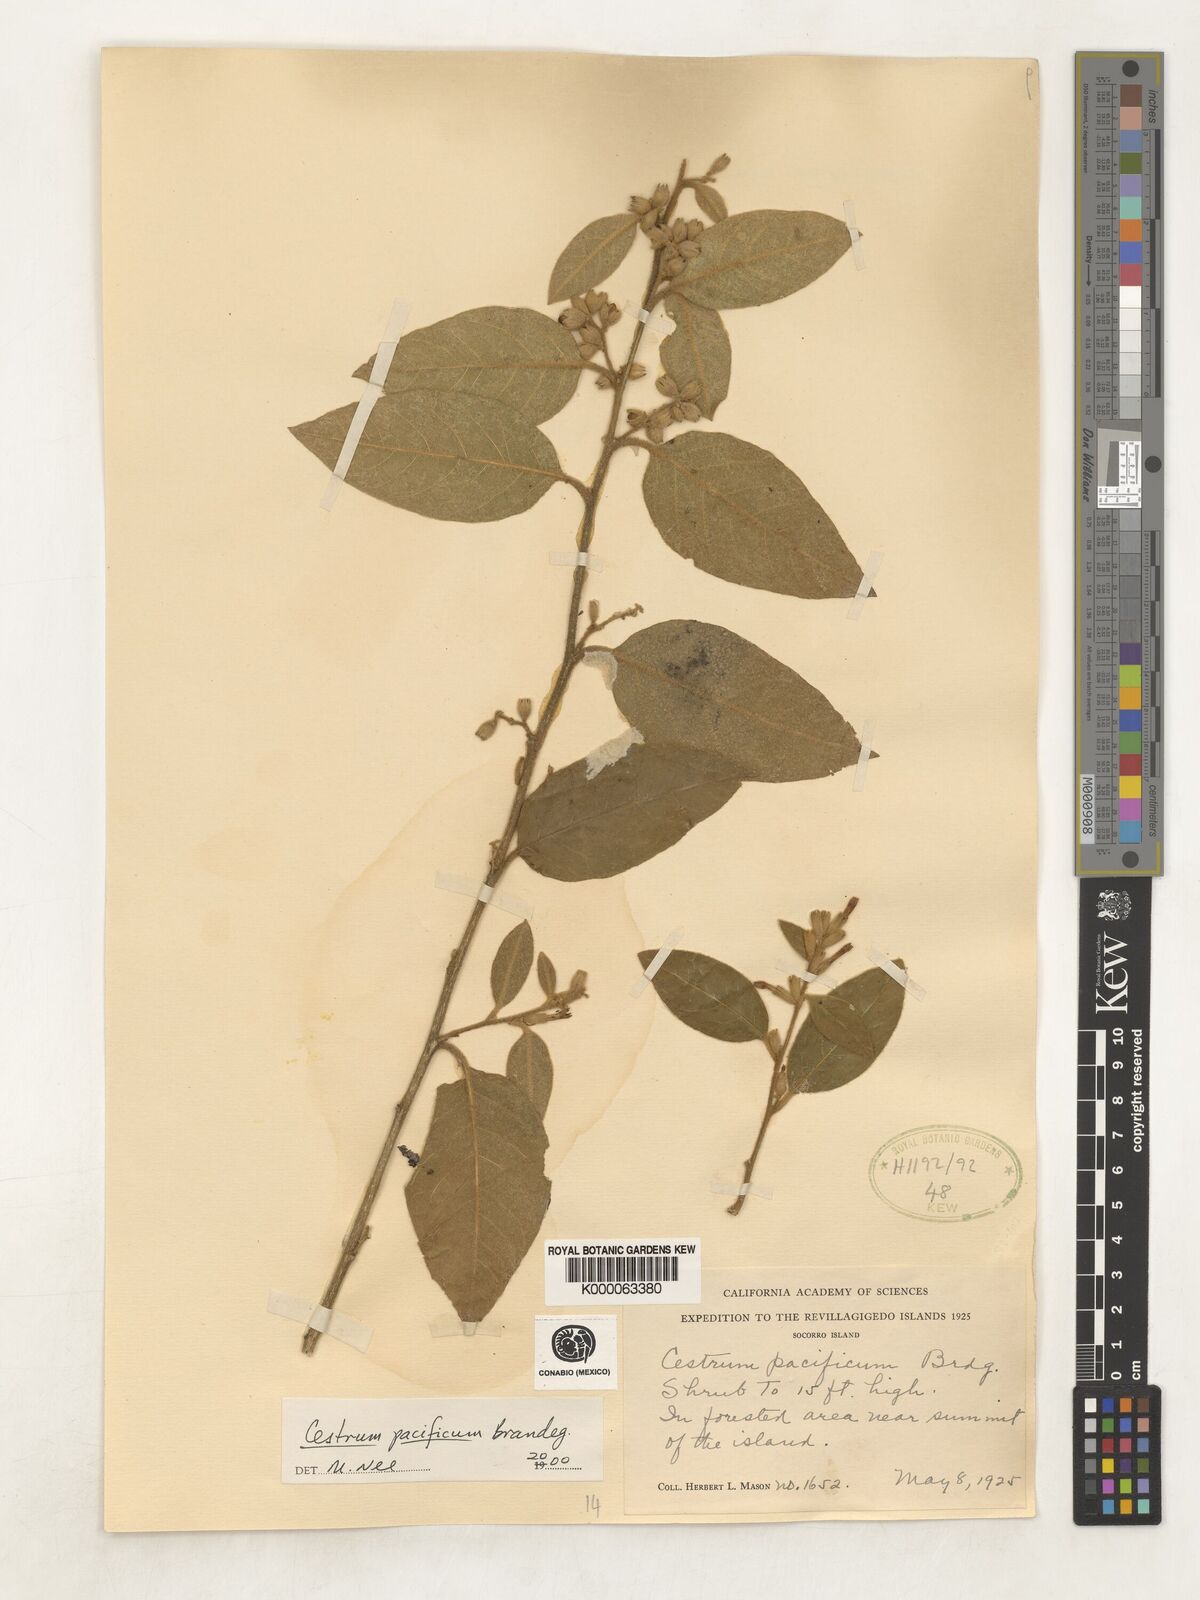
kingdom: Plantae
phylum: Tracheophyta
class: Magnoliopsida
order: Solanales
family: Solanaceae
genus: Cestrum
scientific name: Cestrum pacificum
